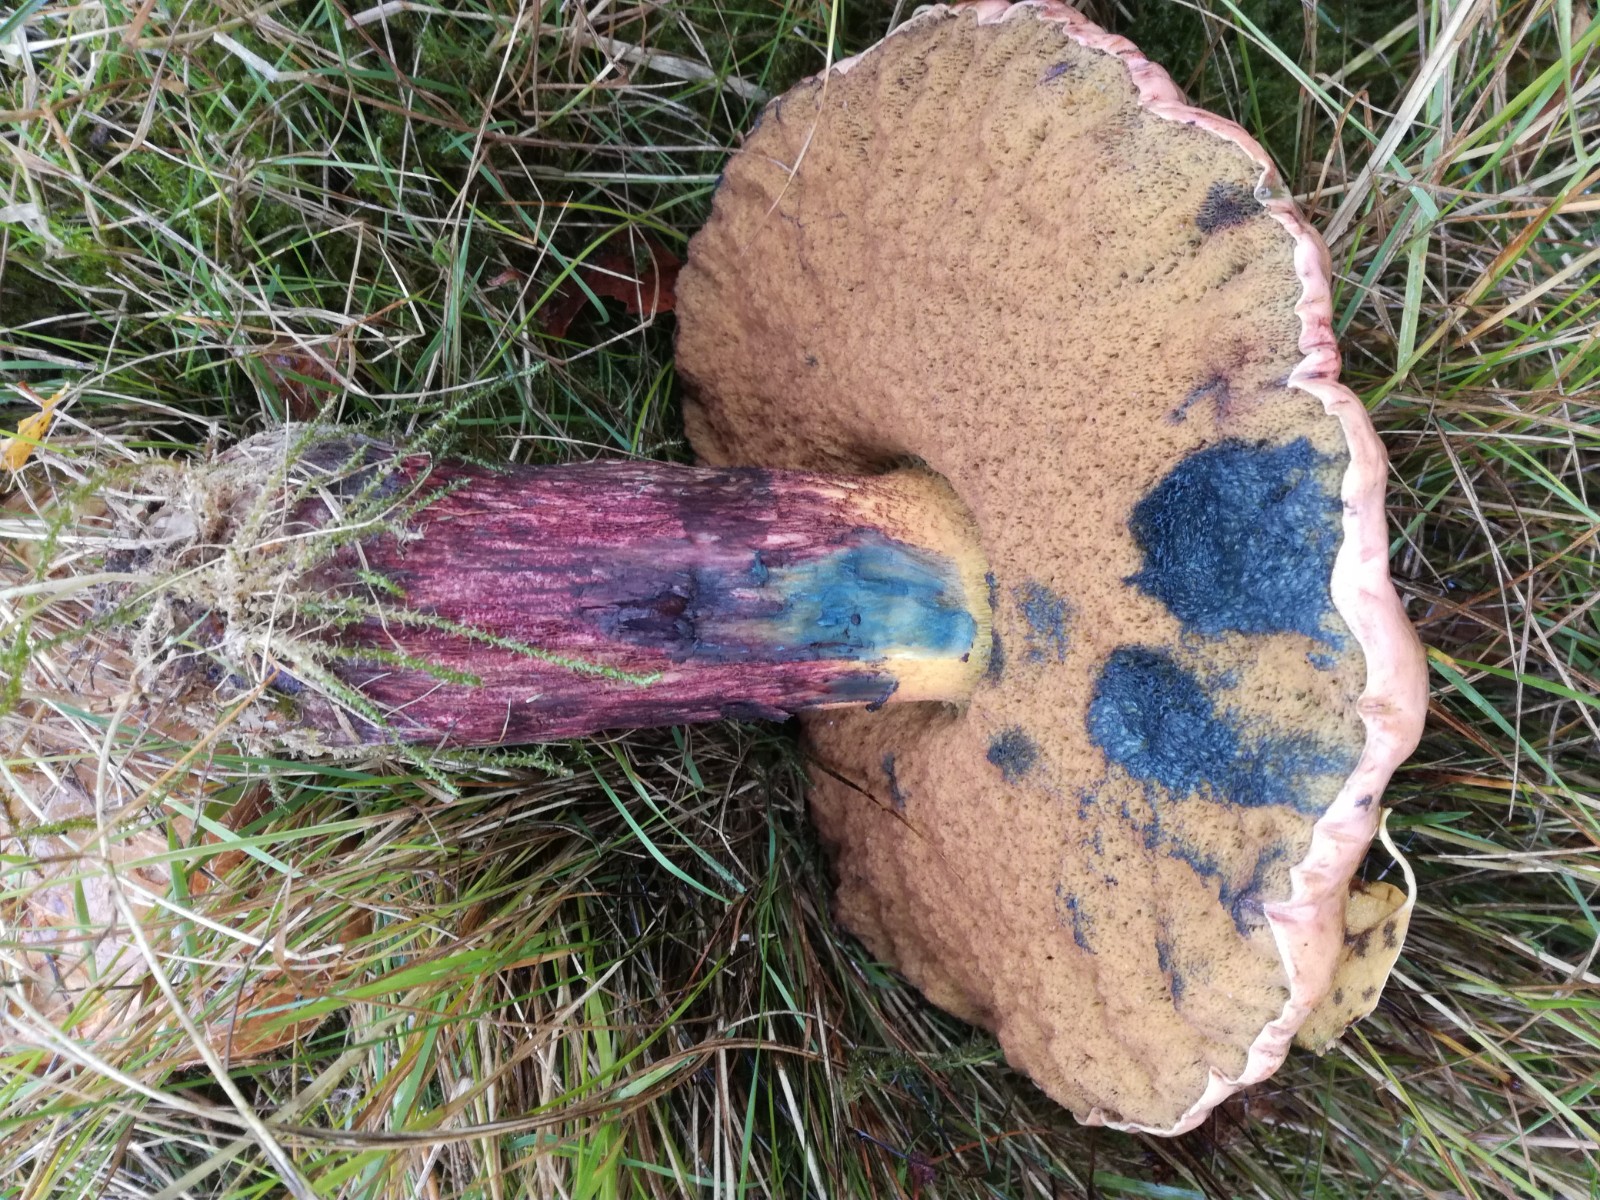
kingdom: Fungi
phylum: Basidiomycota
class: Agaricomycetes
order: Boletales
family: Boletaceae
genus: Suillellus
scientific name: Suillellus luridus
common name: netstokket indigorørhat
